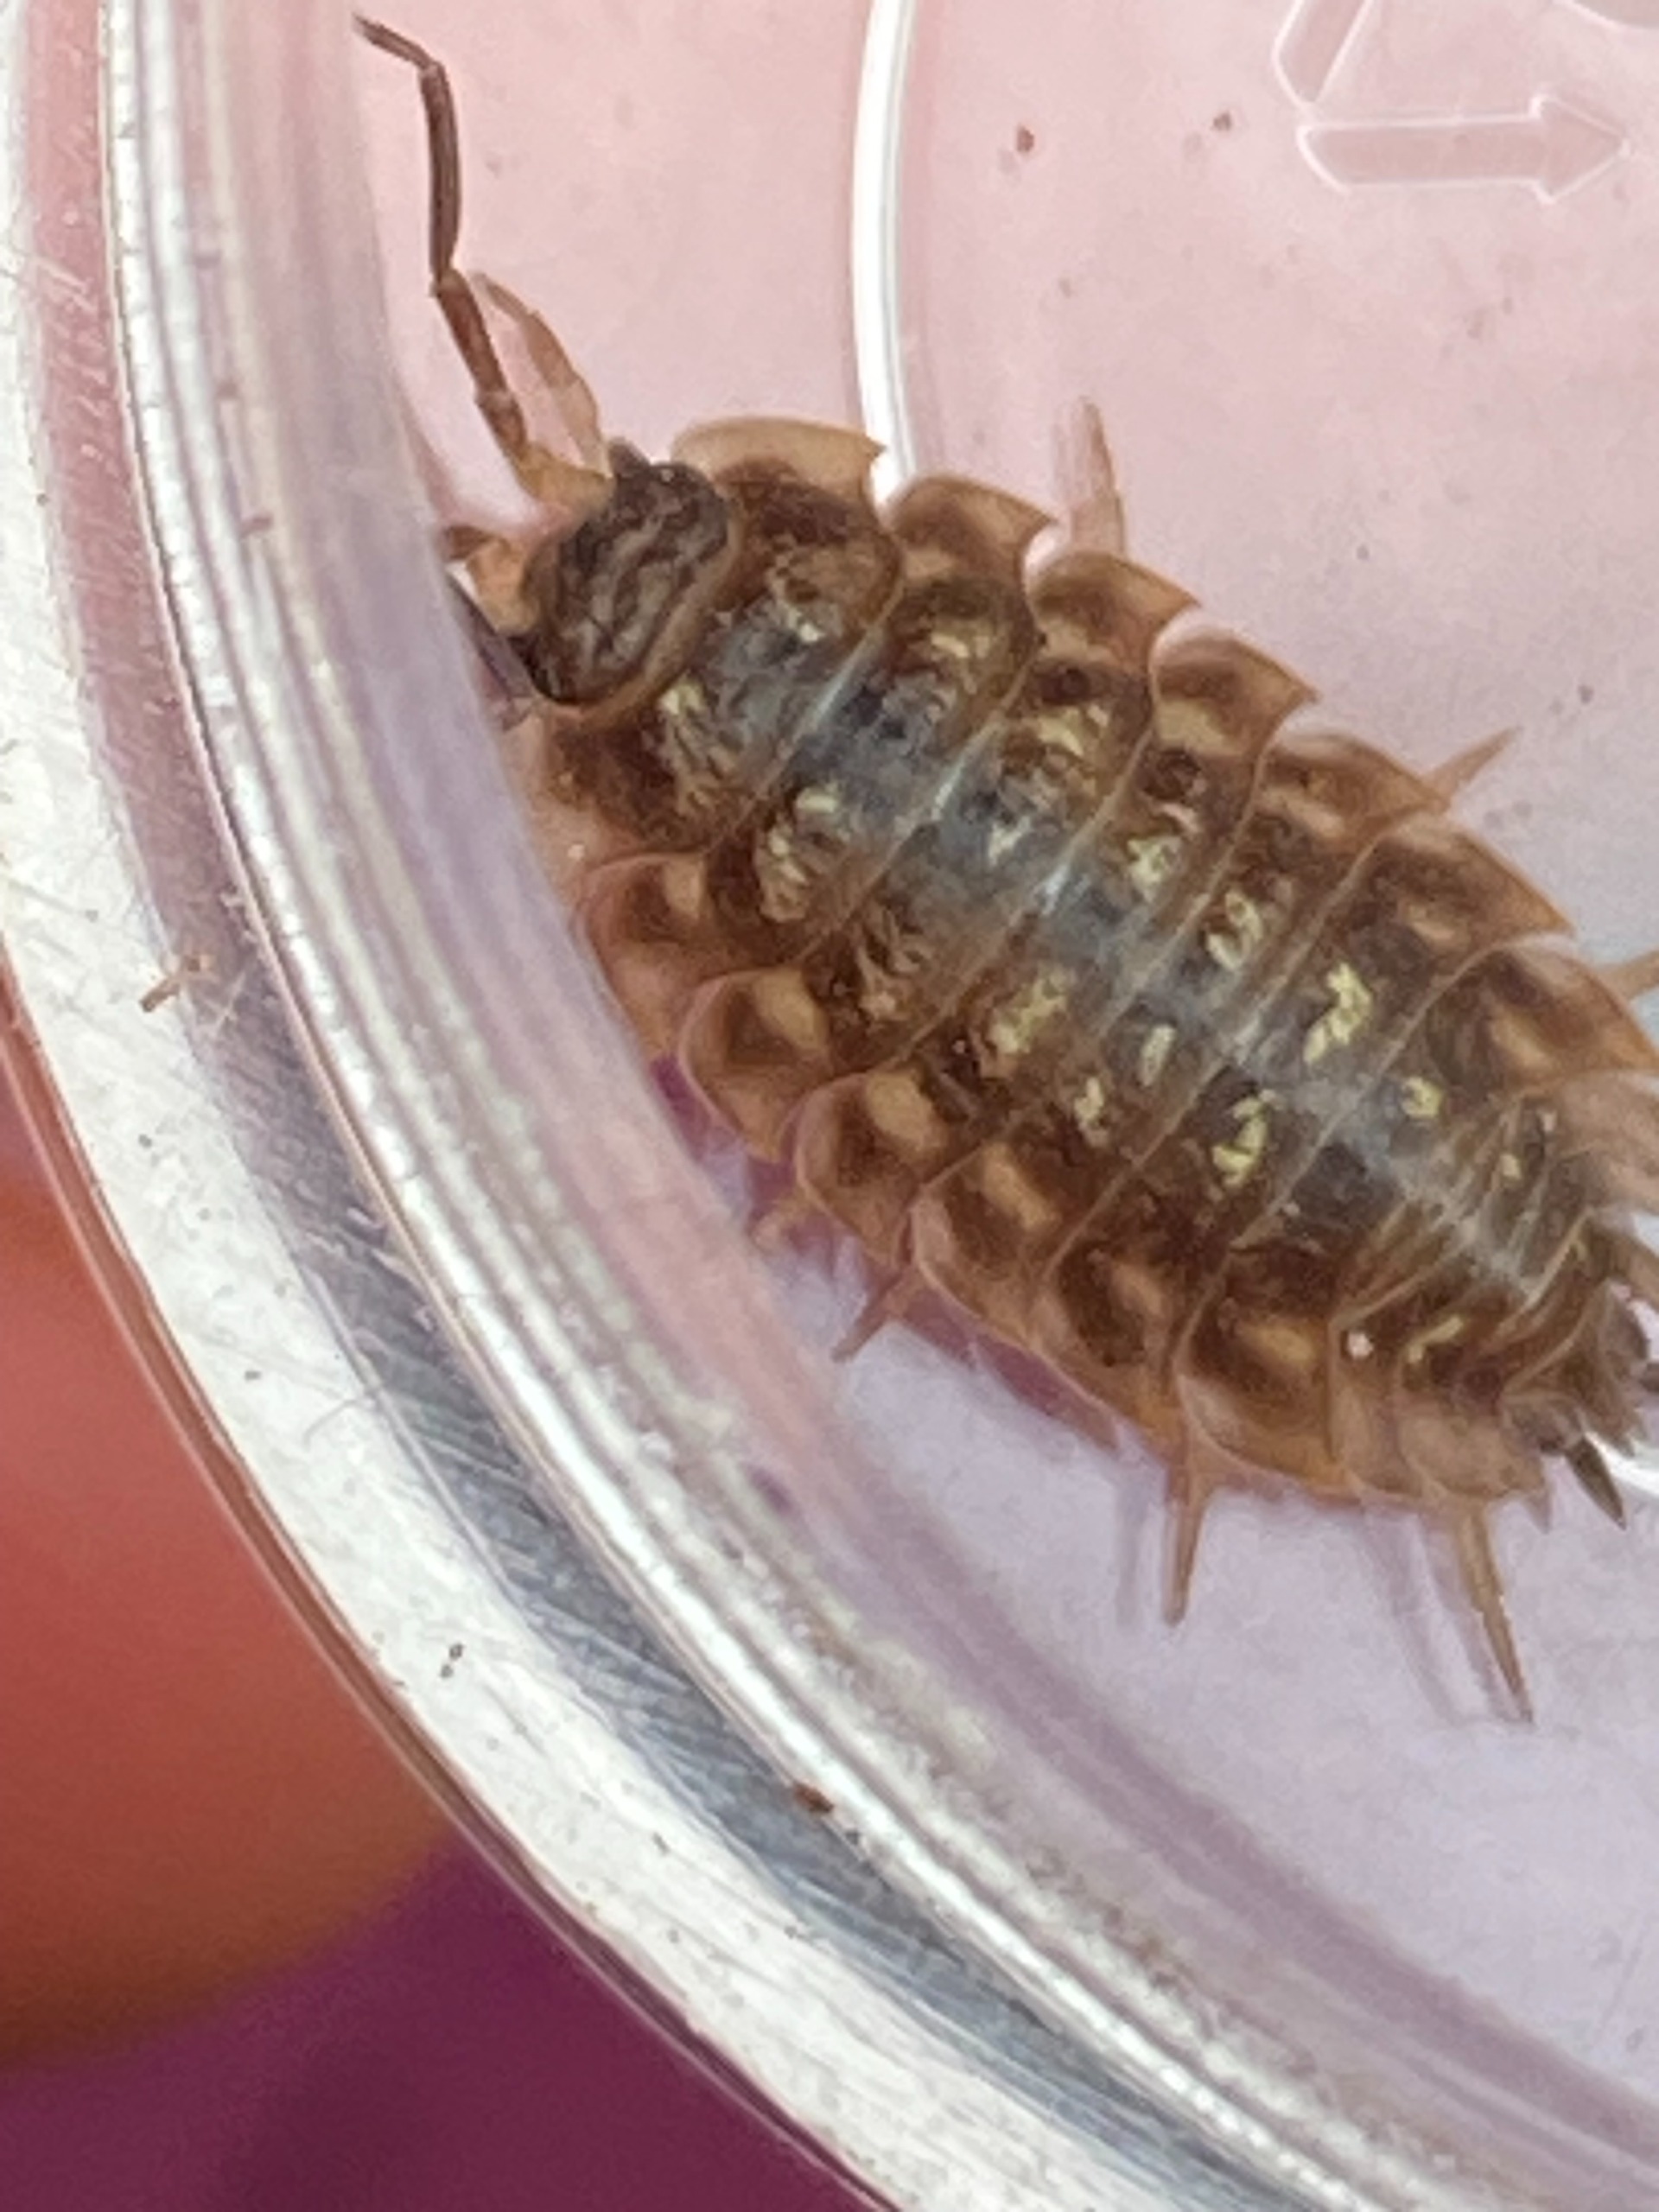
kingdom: Animalia
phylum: Arthropoda
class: Malacostraca
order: Isopoda
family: Oniscidae
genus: Oniscus
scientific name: Oniscus asellus
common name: Glat bænkebider
